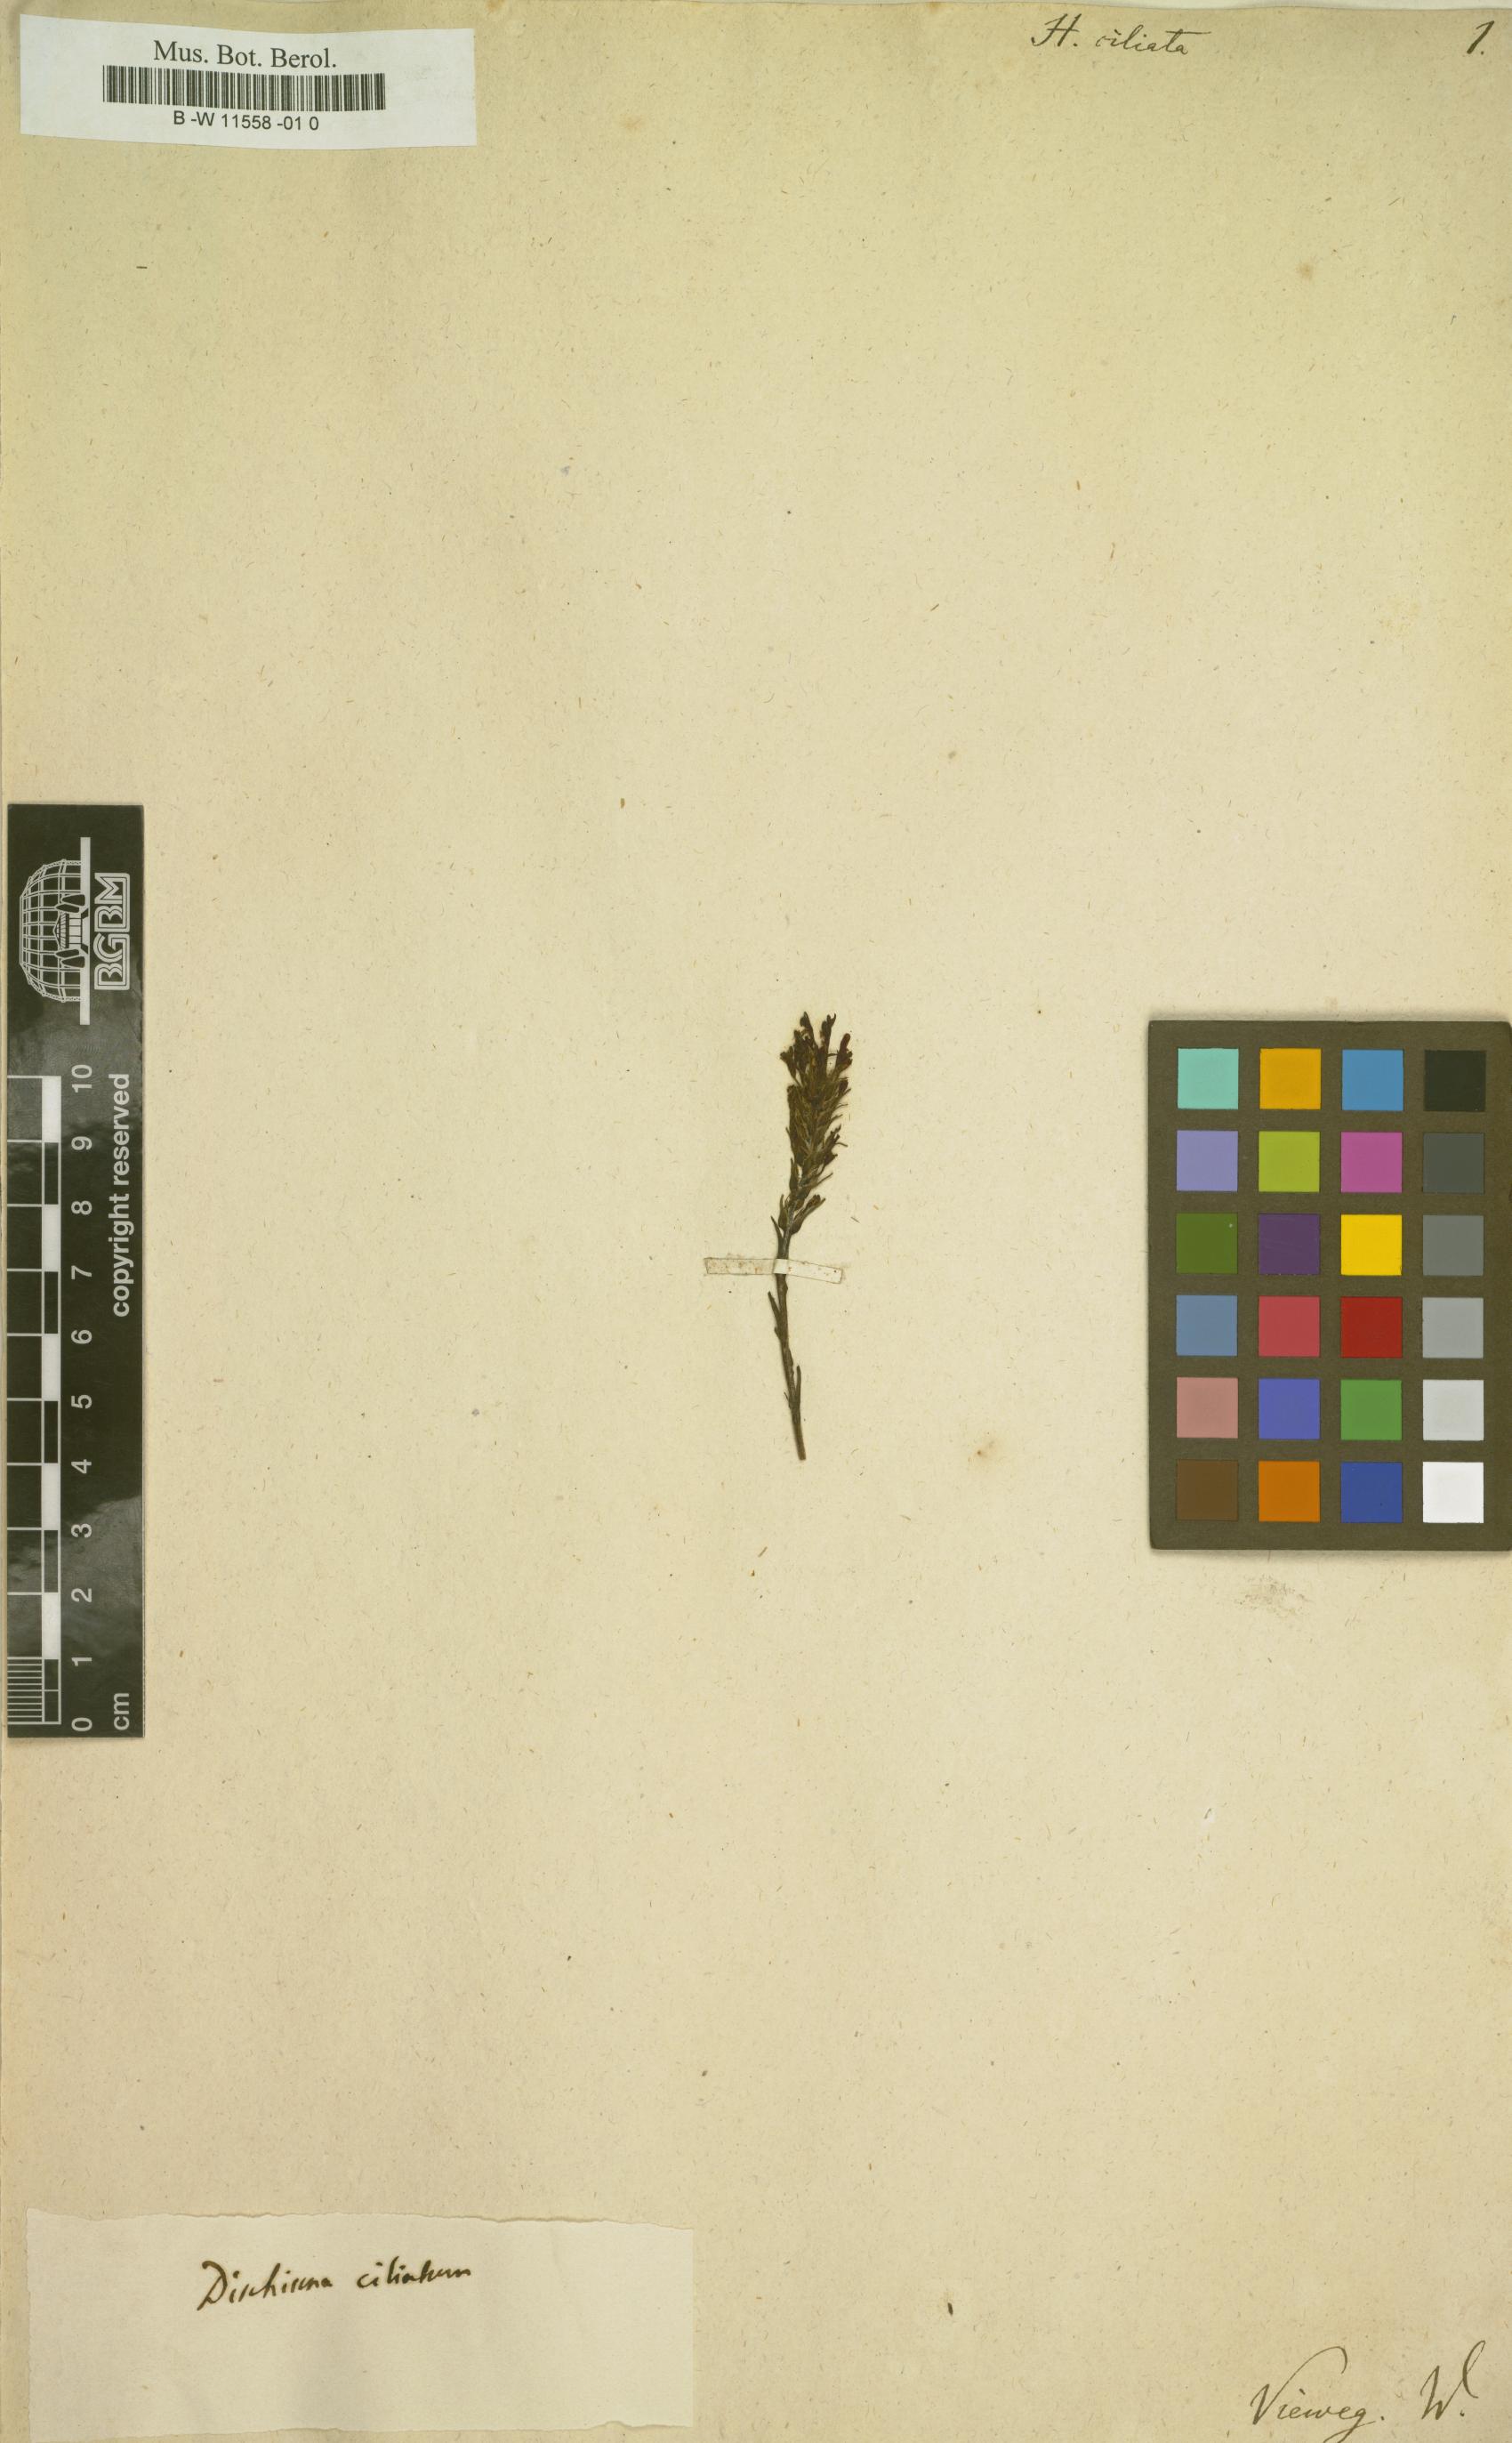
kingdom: Plantae
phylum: Tracheophyta
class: Magnoliopsida
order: Lamiales
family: Scrophulariaceae
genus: Dischisma
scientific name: Dischisma ciliatum
